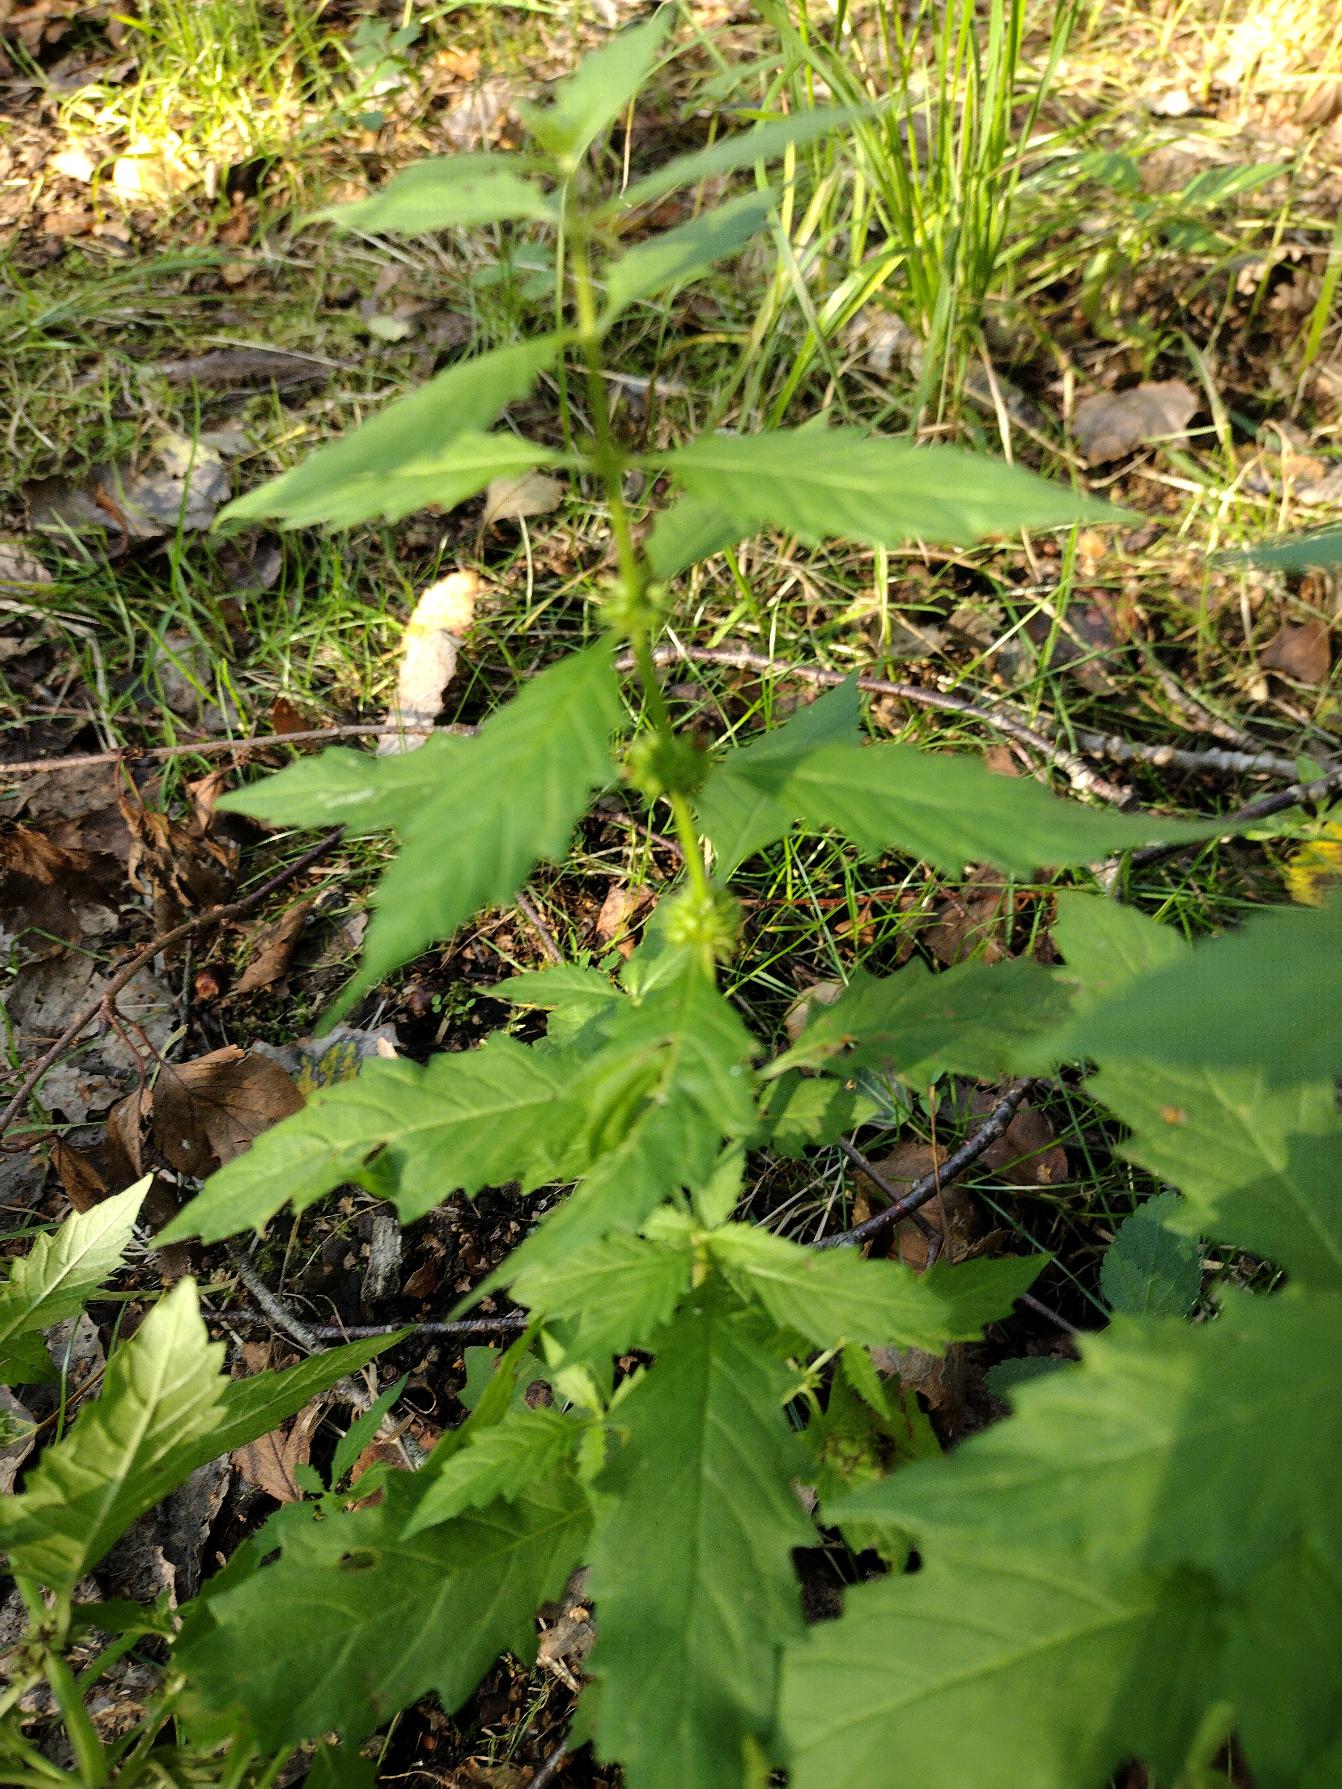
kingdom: Plantae
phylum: Tracheophyta
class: Magnoliopsida
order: Lamiales
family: Lamiaceae
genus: Lycopus
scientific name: Lycopus europaeus
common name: Sværtevæld
